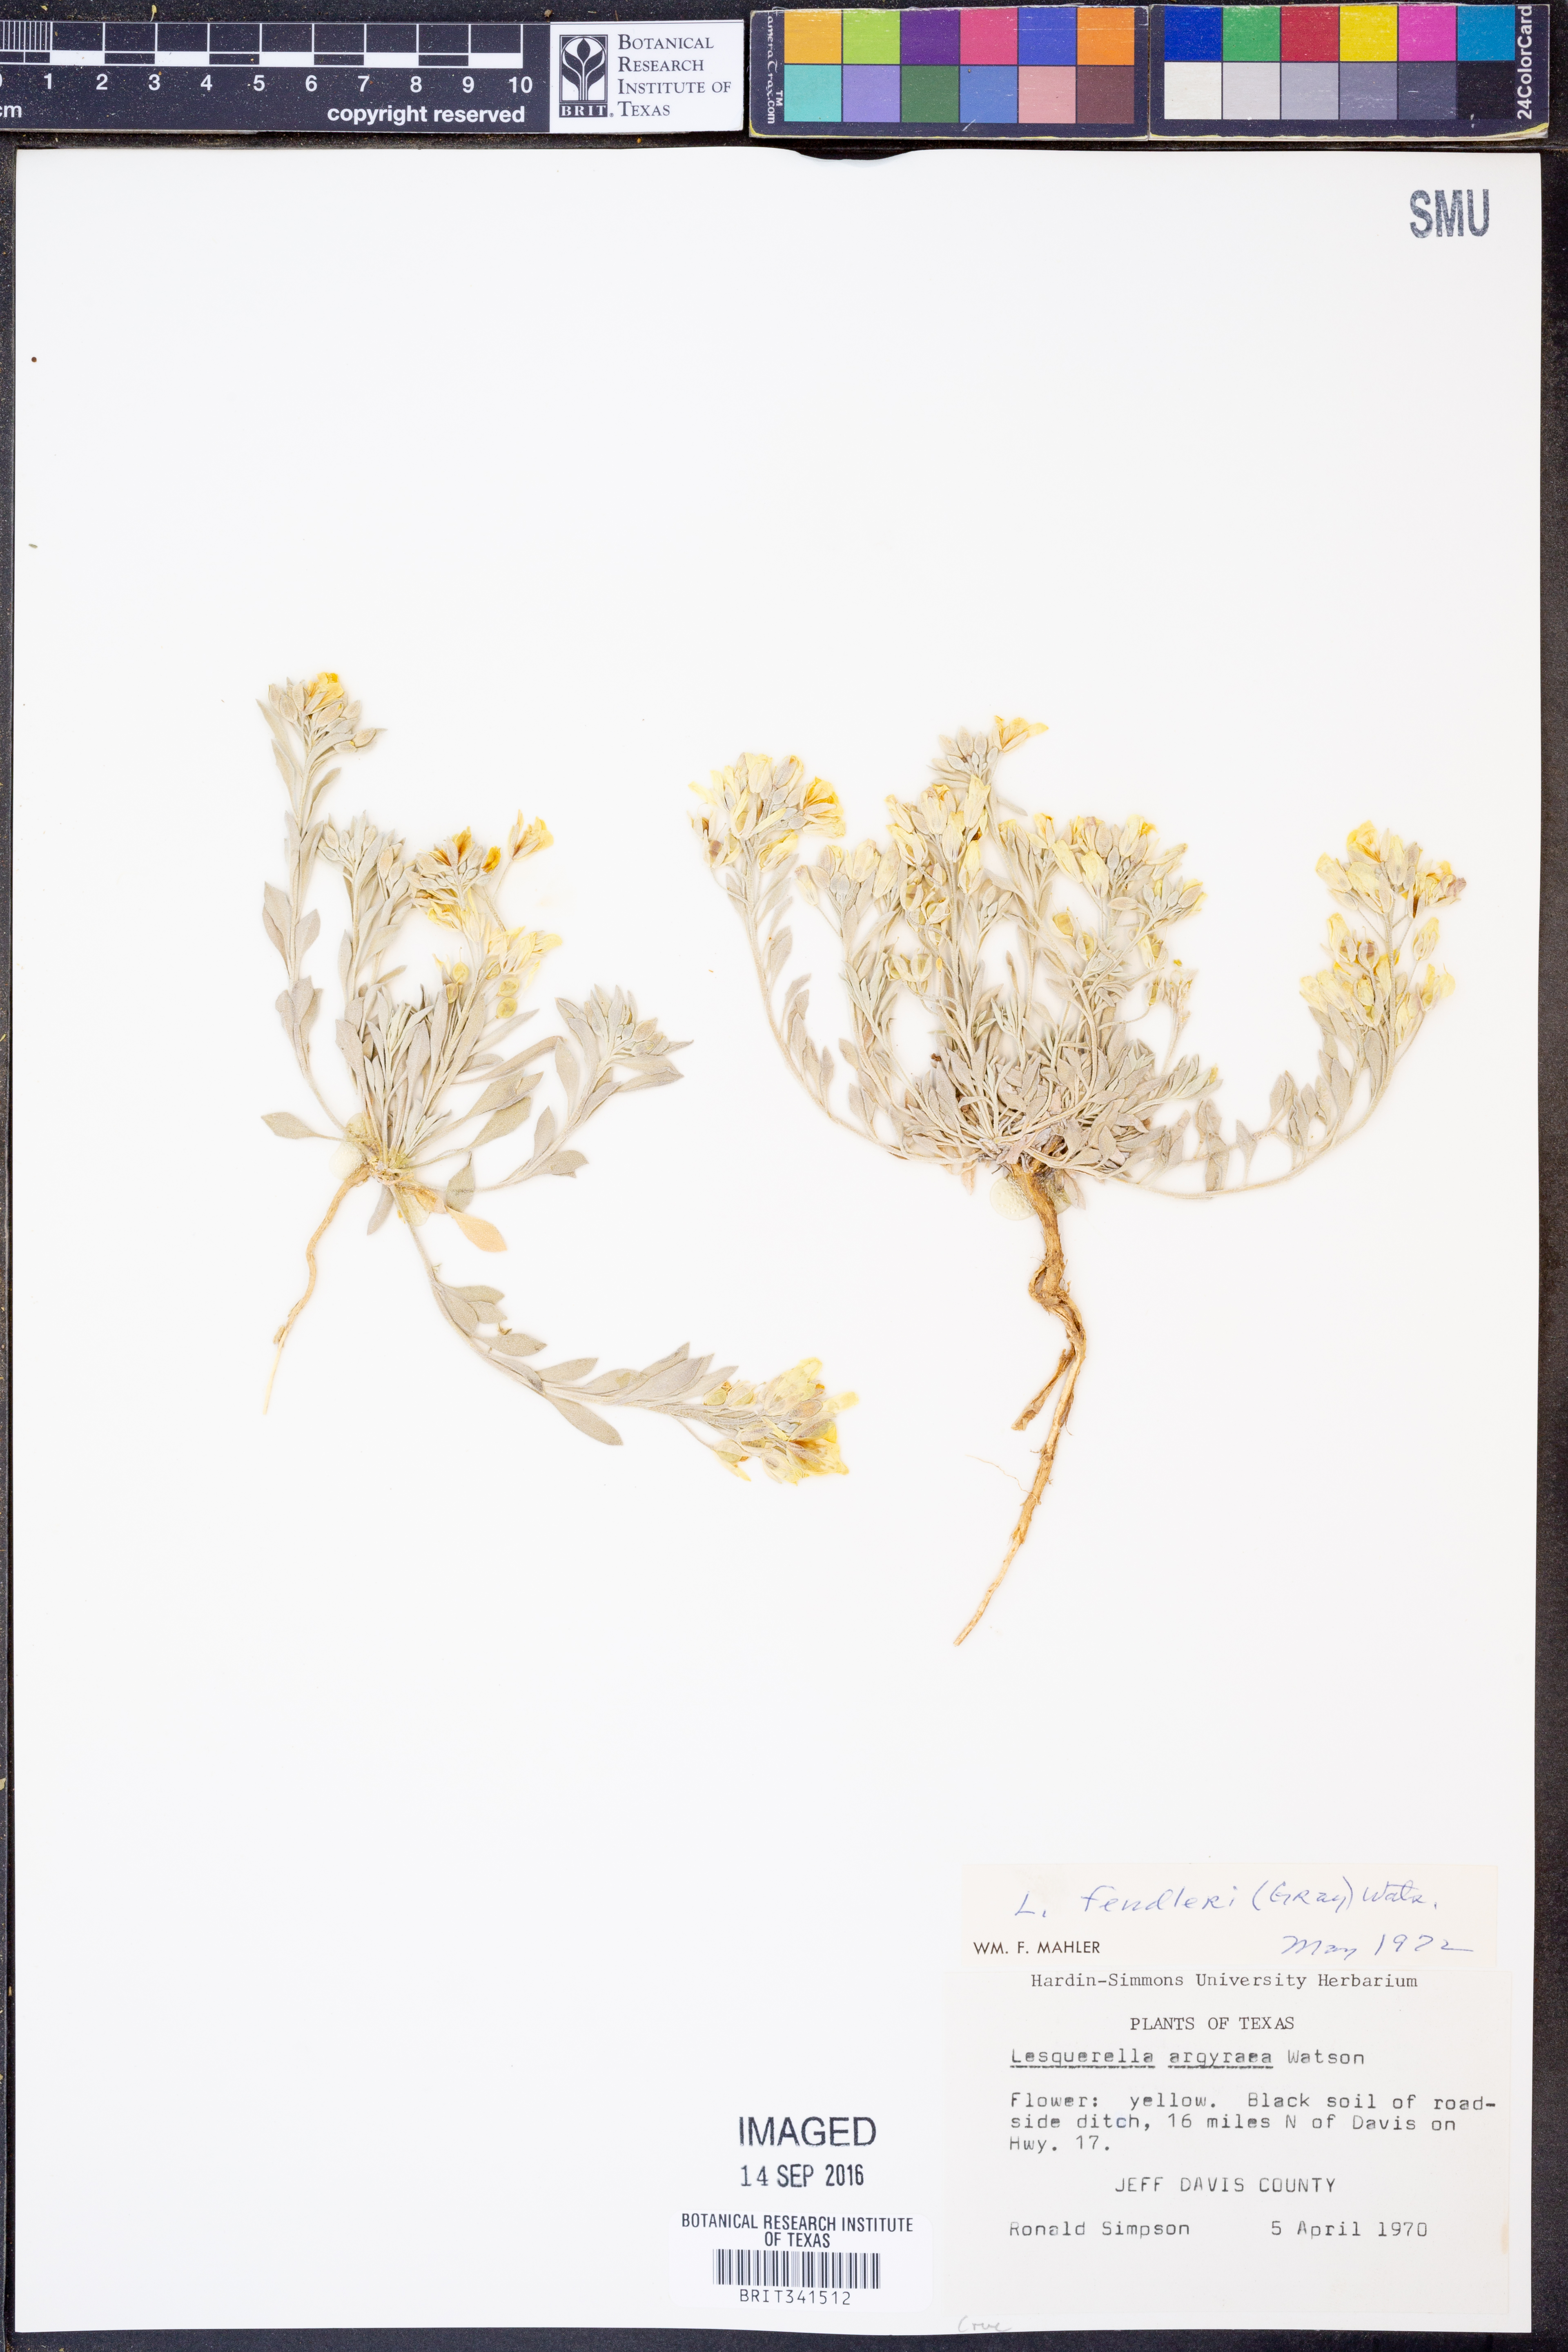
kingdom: Plantae
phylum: Tracheophyta
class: Magnoliopsida
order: Brassicales
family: Brassicaceae
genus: Physaria
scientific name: Physaria fendleri
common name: Fendler's bladderpod
